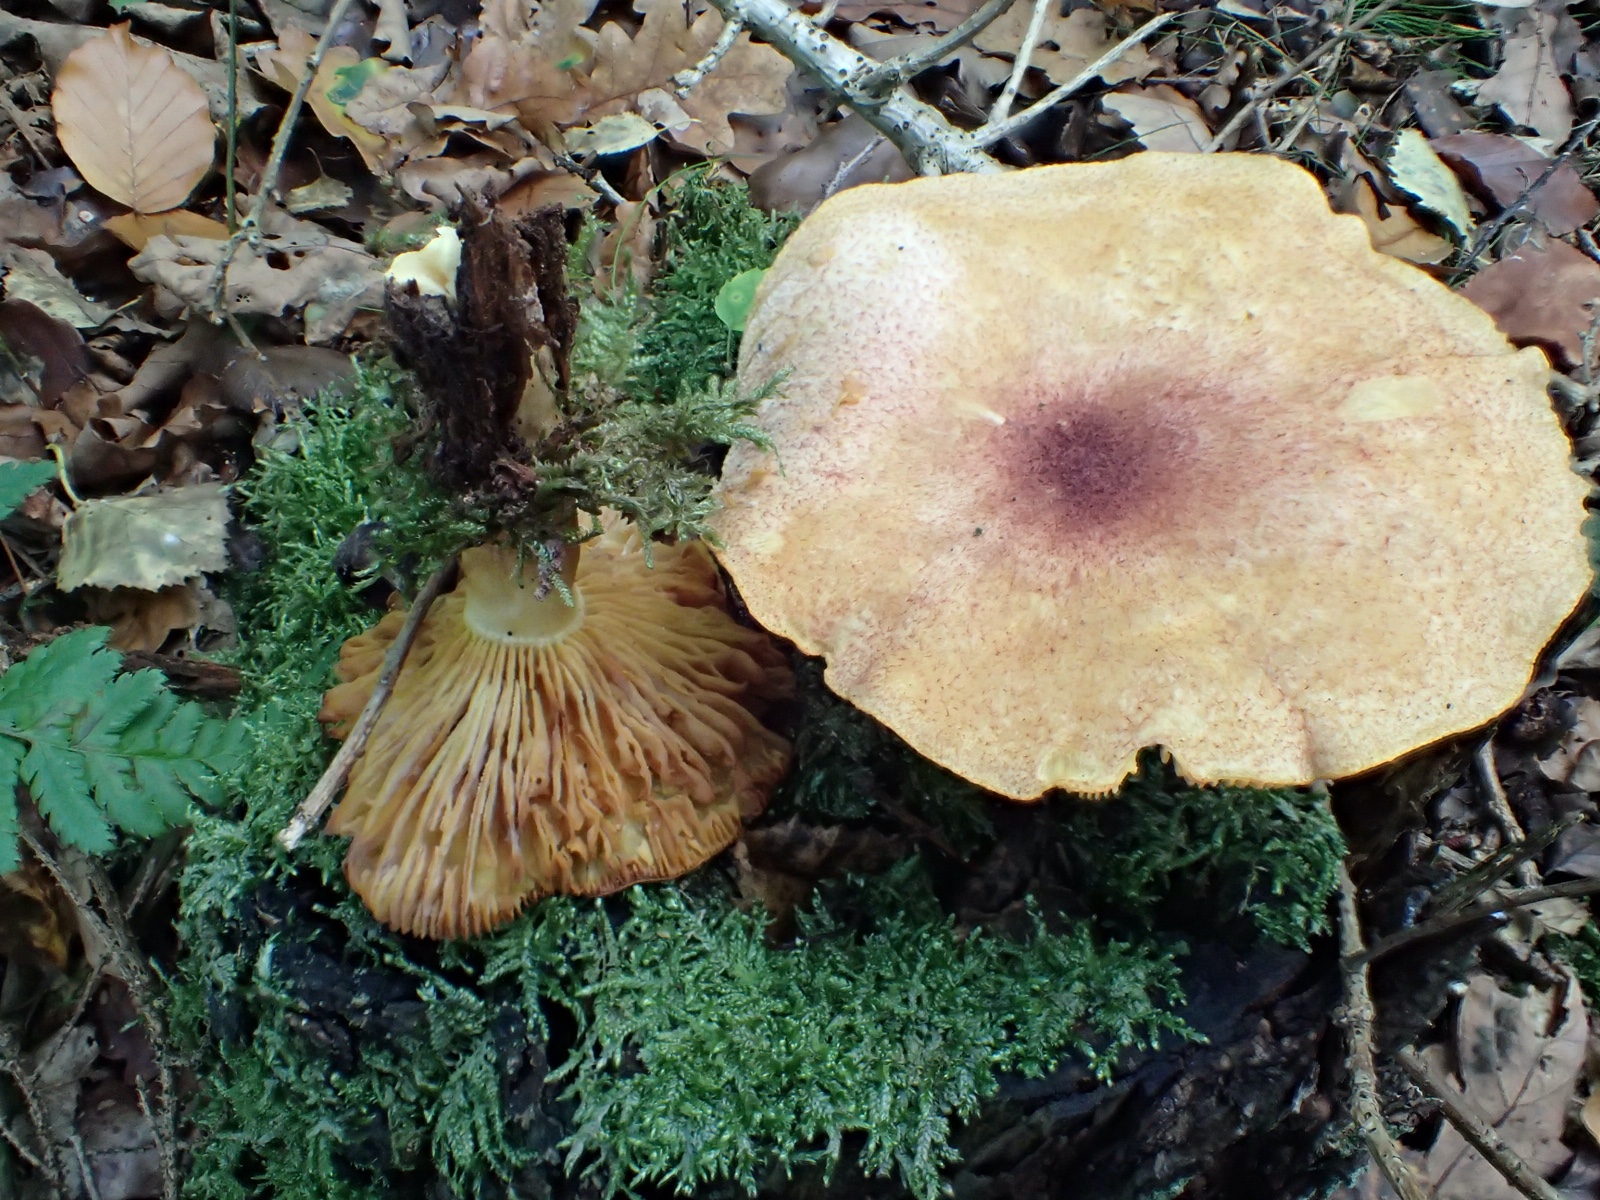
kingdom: Fungi
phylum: Basidiomycota
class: Agaricomycetes
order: Agaricales
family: Tricholomataceae
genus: Tricholomopsis
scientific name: Tricholomopsis rutilans
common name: purpur-væbnerhat
